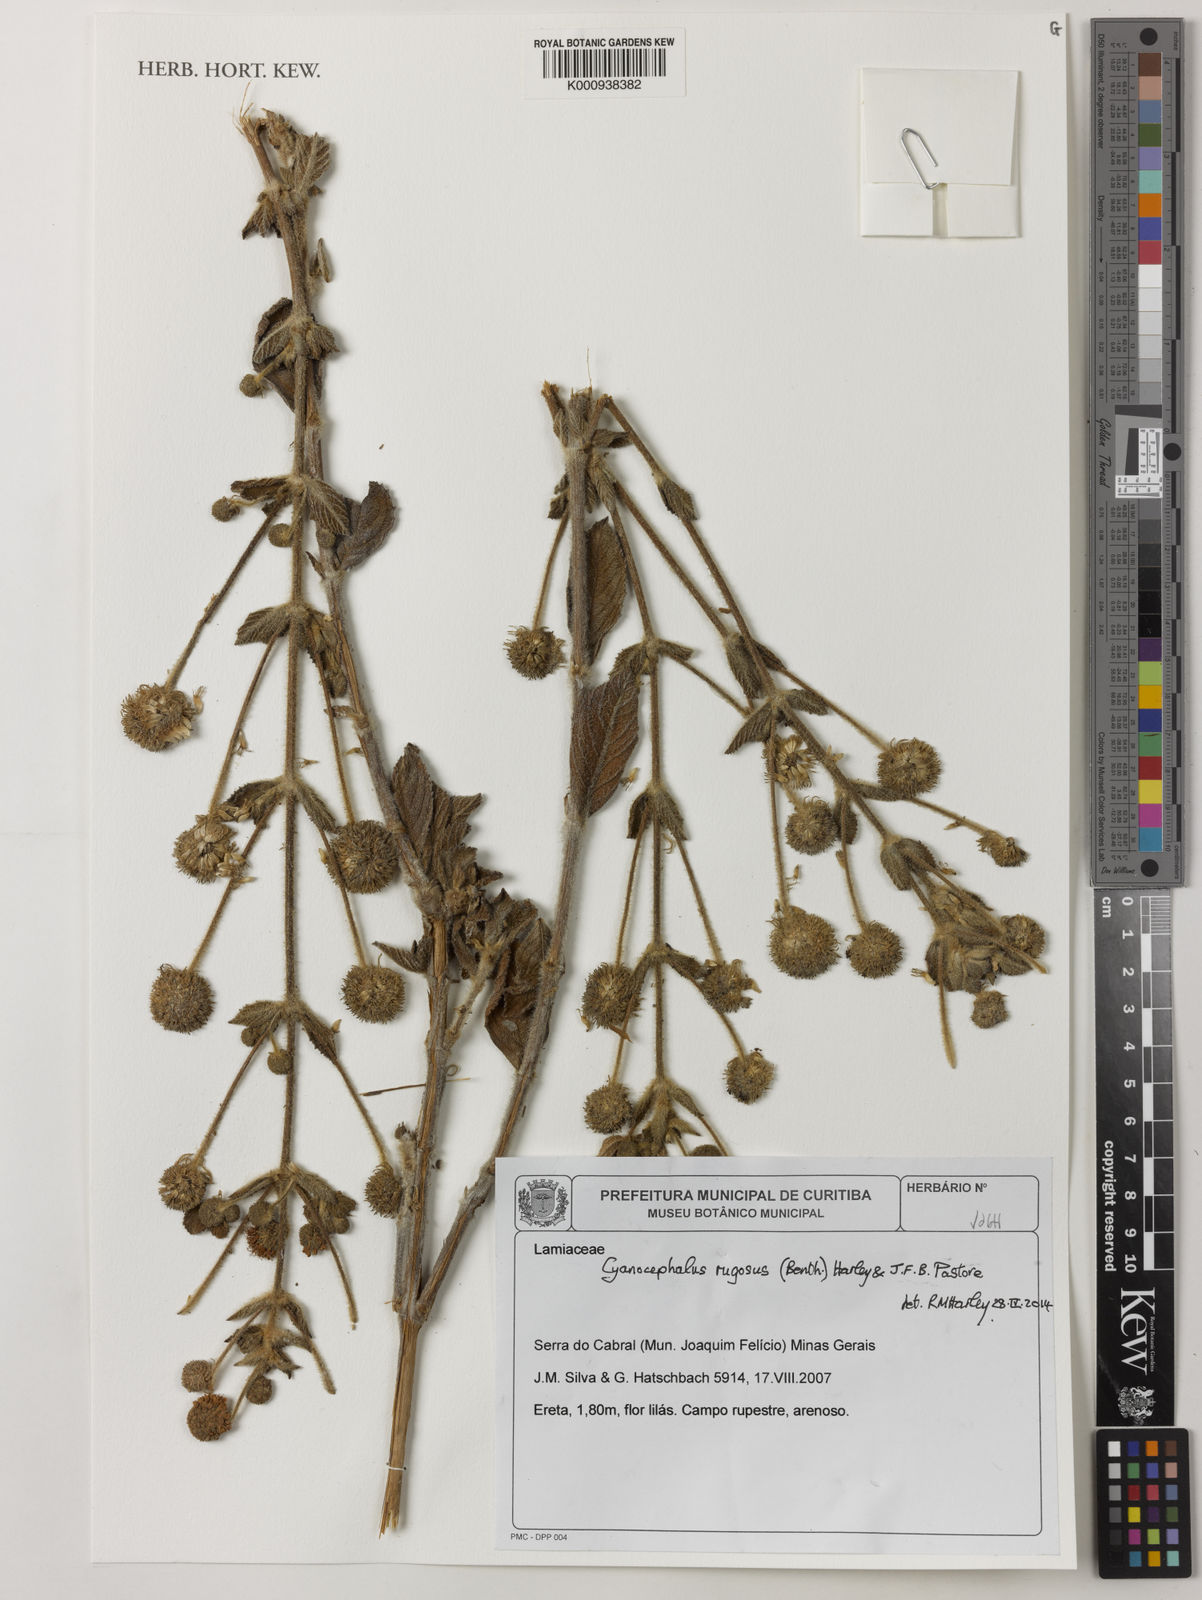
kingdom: Plantae
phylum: Tracheophyta
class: Magnoliopsida
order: Lamiales
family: Lamiaceae
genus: Cyanocephalus
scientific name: Cyanocephalus
